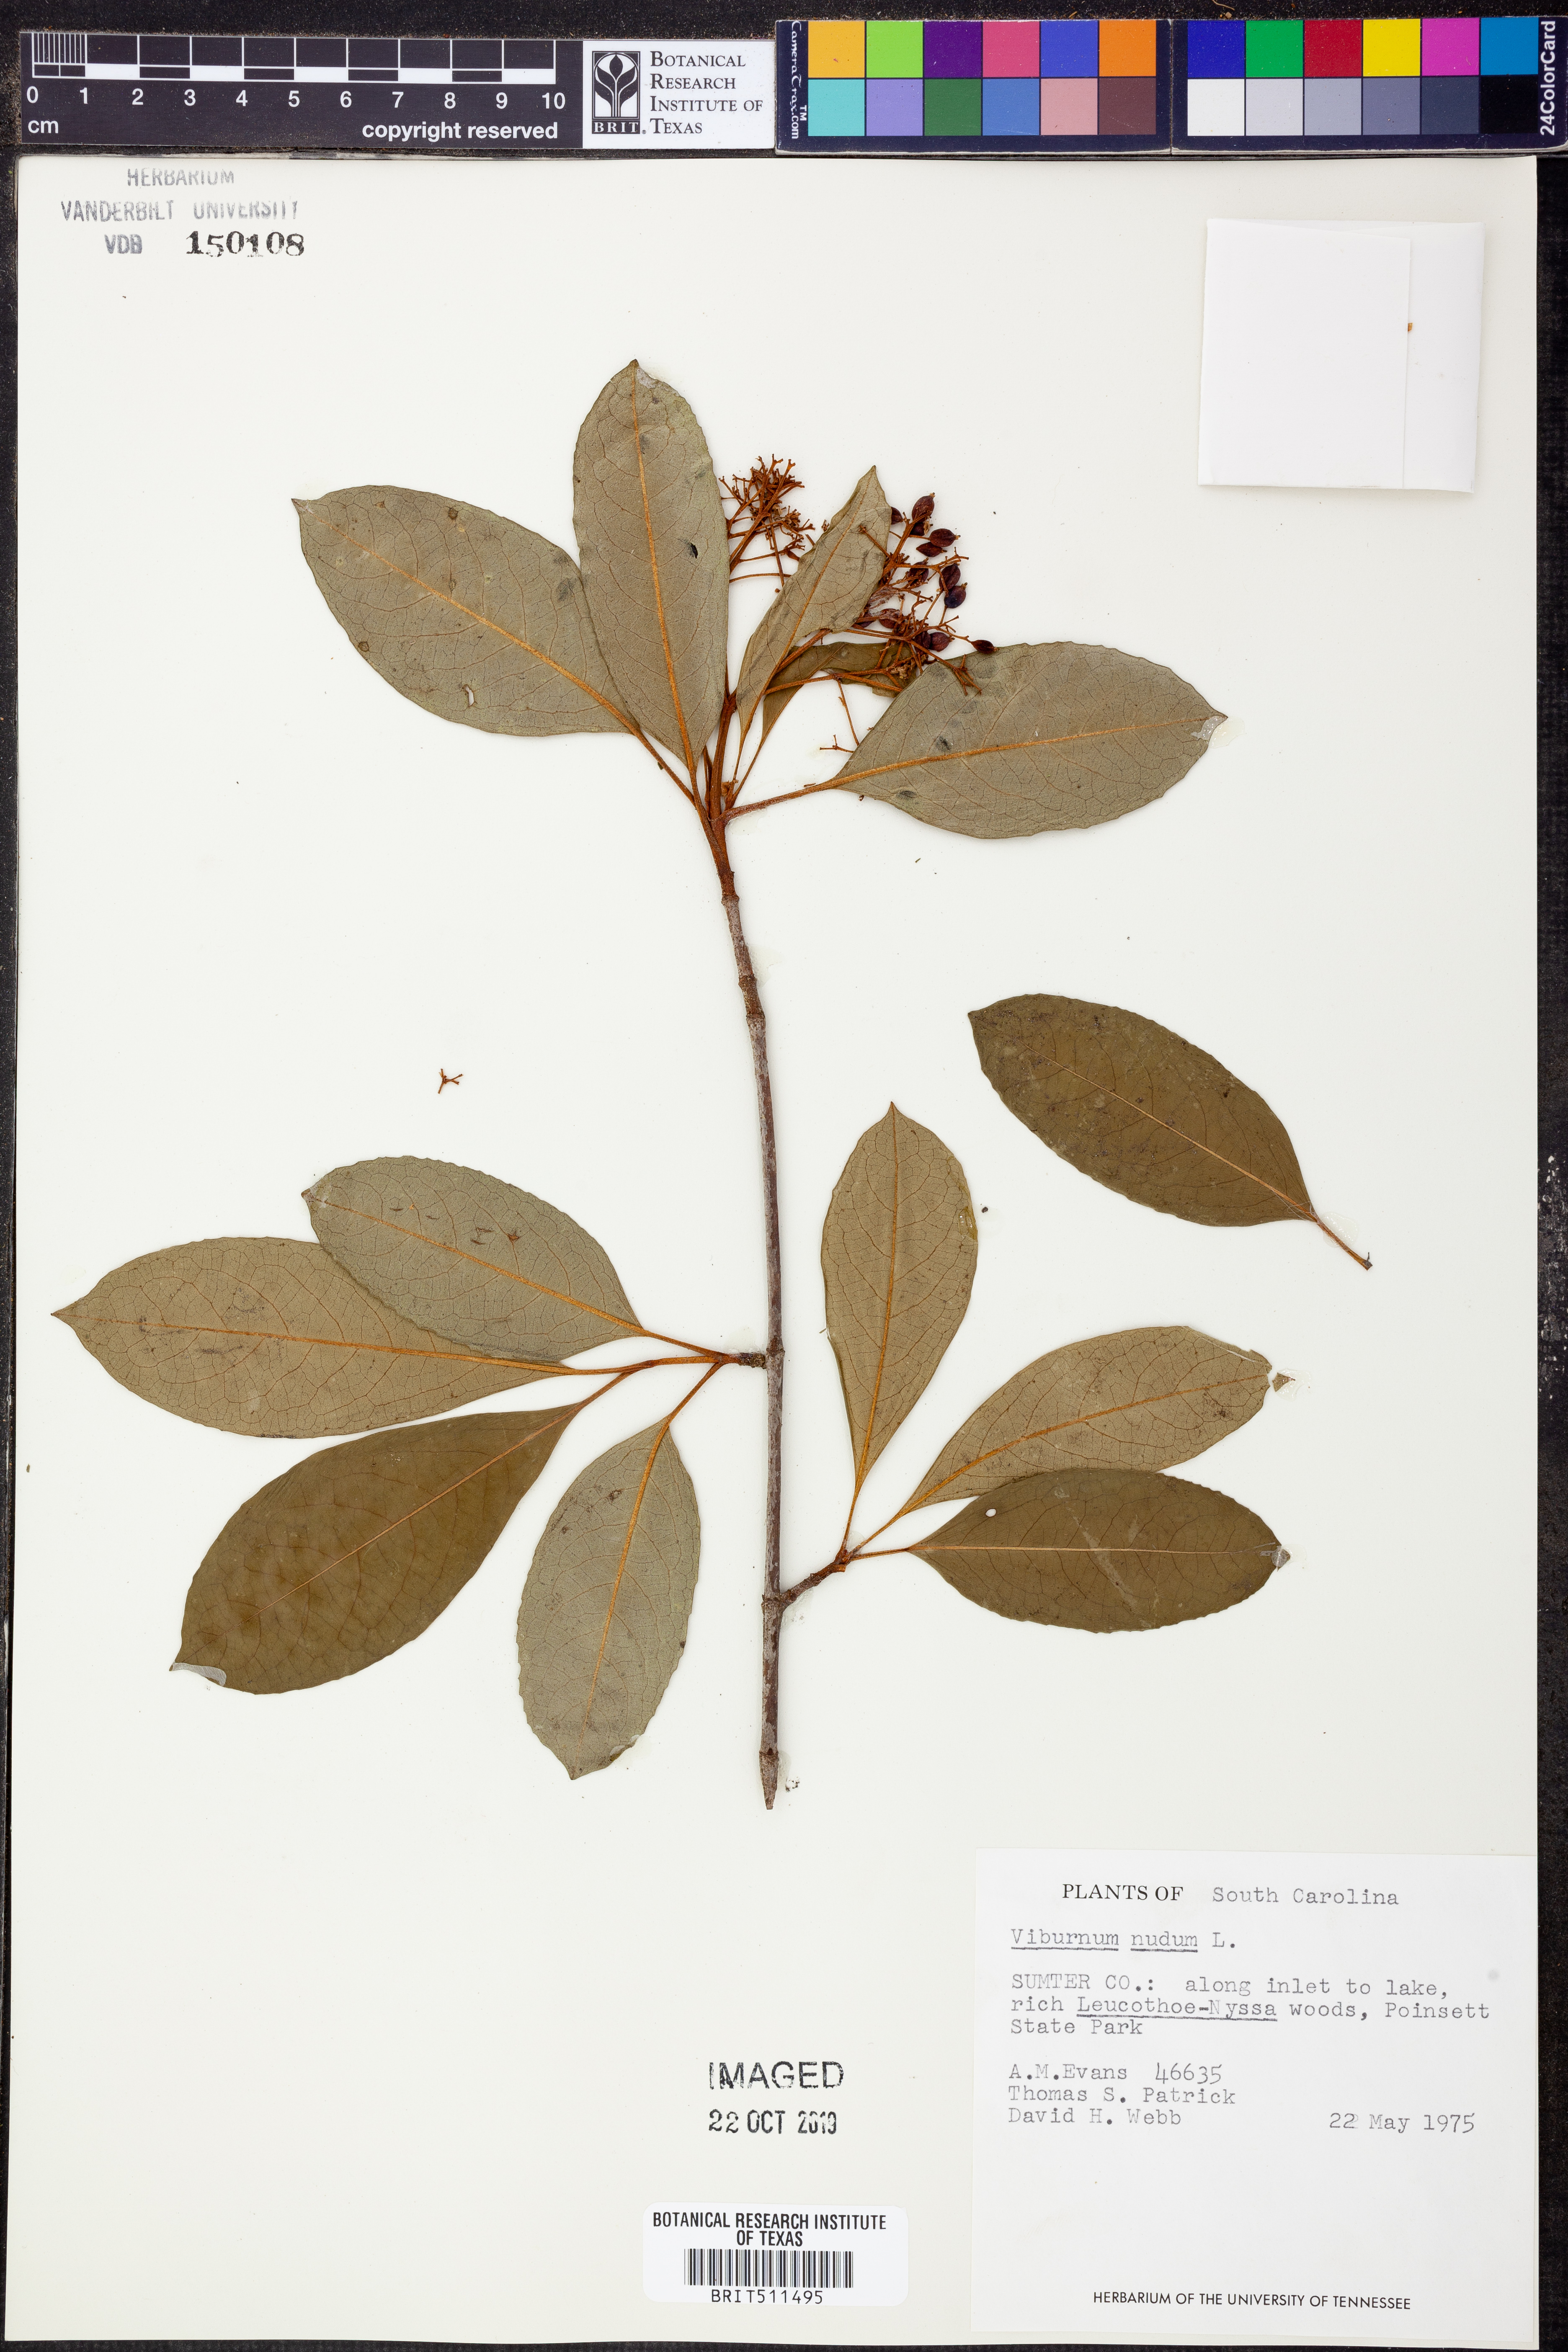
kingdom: Plantae
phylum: Tracheophyta
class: Magnoliopsida
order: Dipsacales
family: Viburnaceae
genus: Viburnum
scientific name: Viburnum nudum
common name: Possum haw
